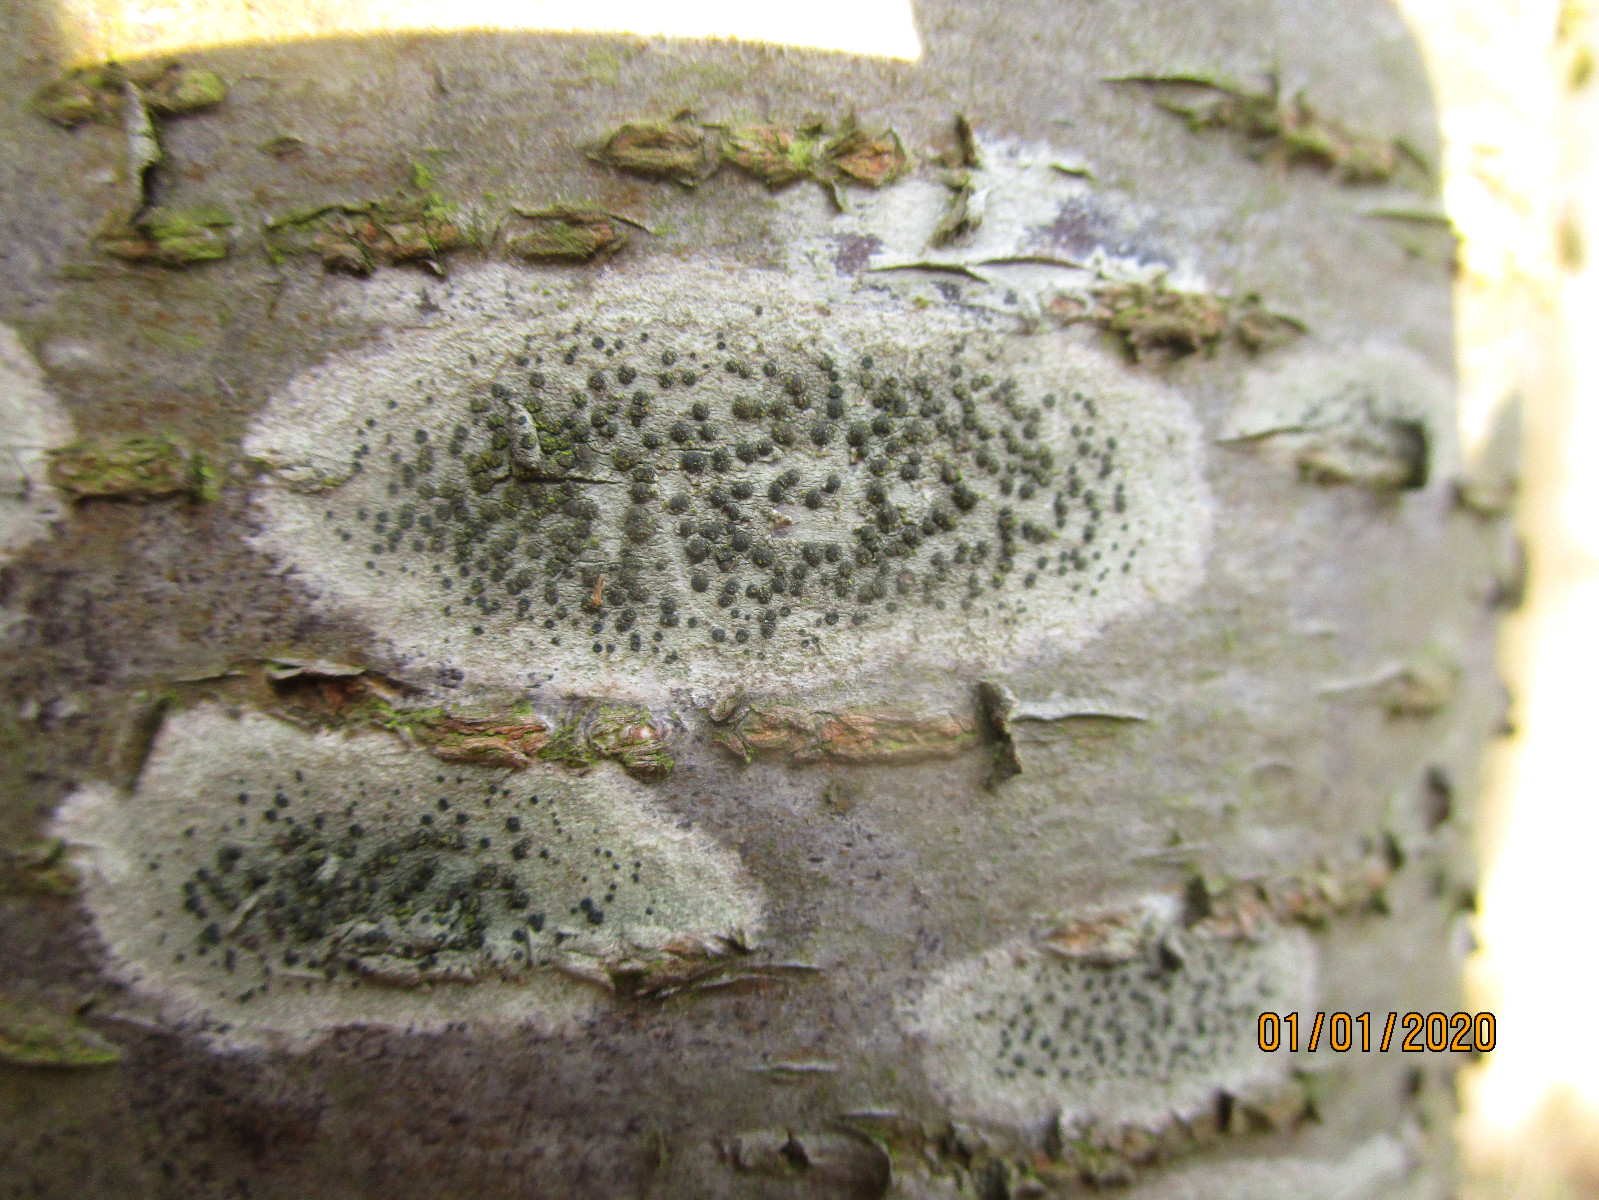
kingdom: Fungi
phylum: Ascomycota
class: Lecanoromycetes
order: Lecanorales
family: Lecanoraceae
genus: Lecidella
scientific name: Lecidella elaeochroma
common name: grågrøn skivelav
